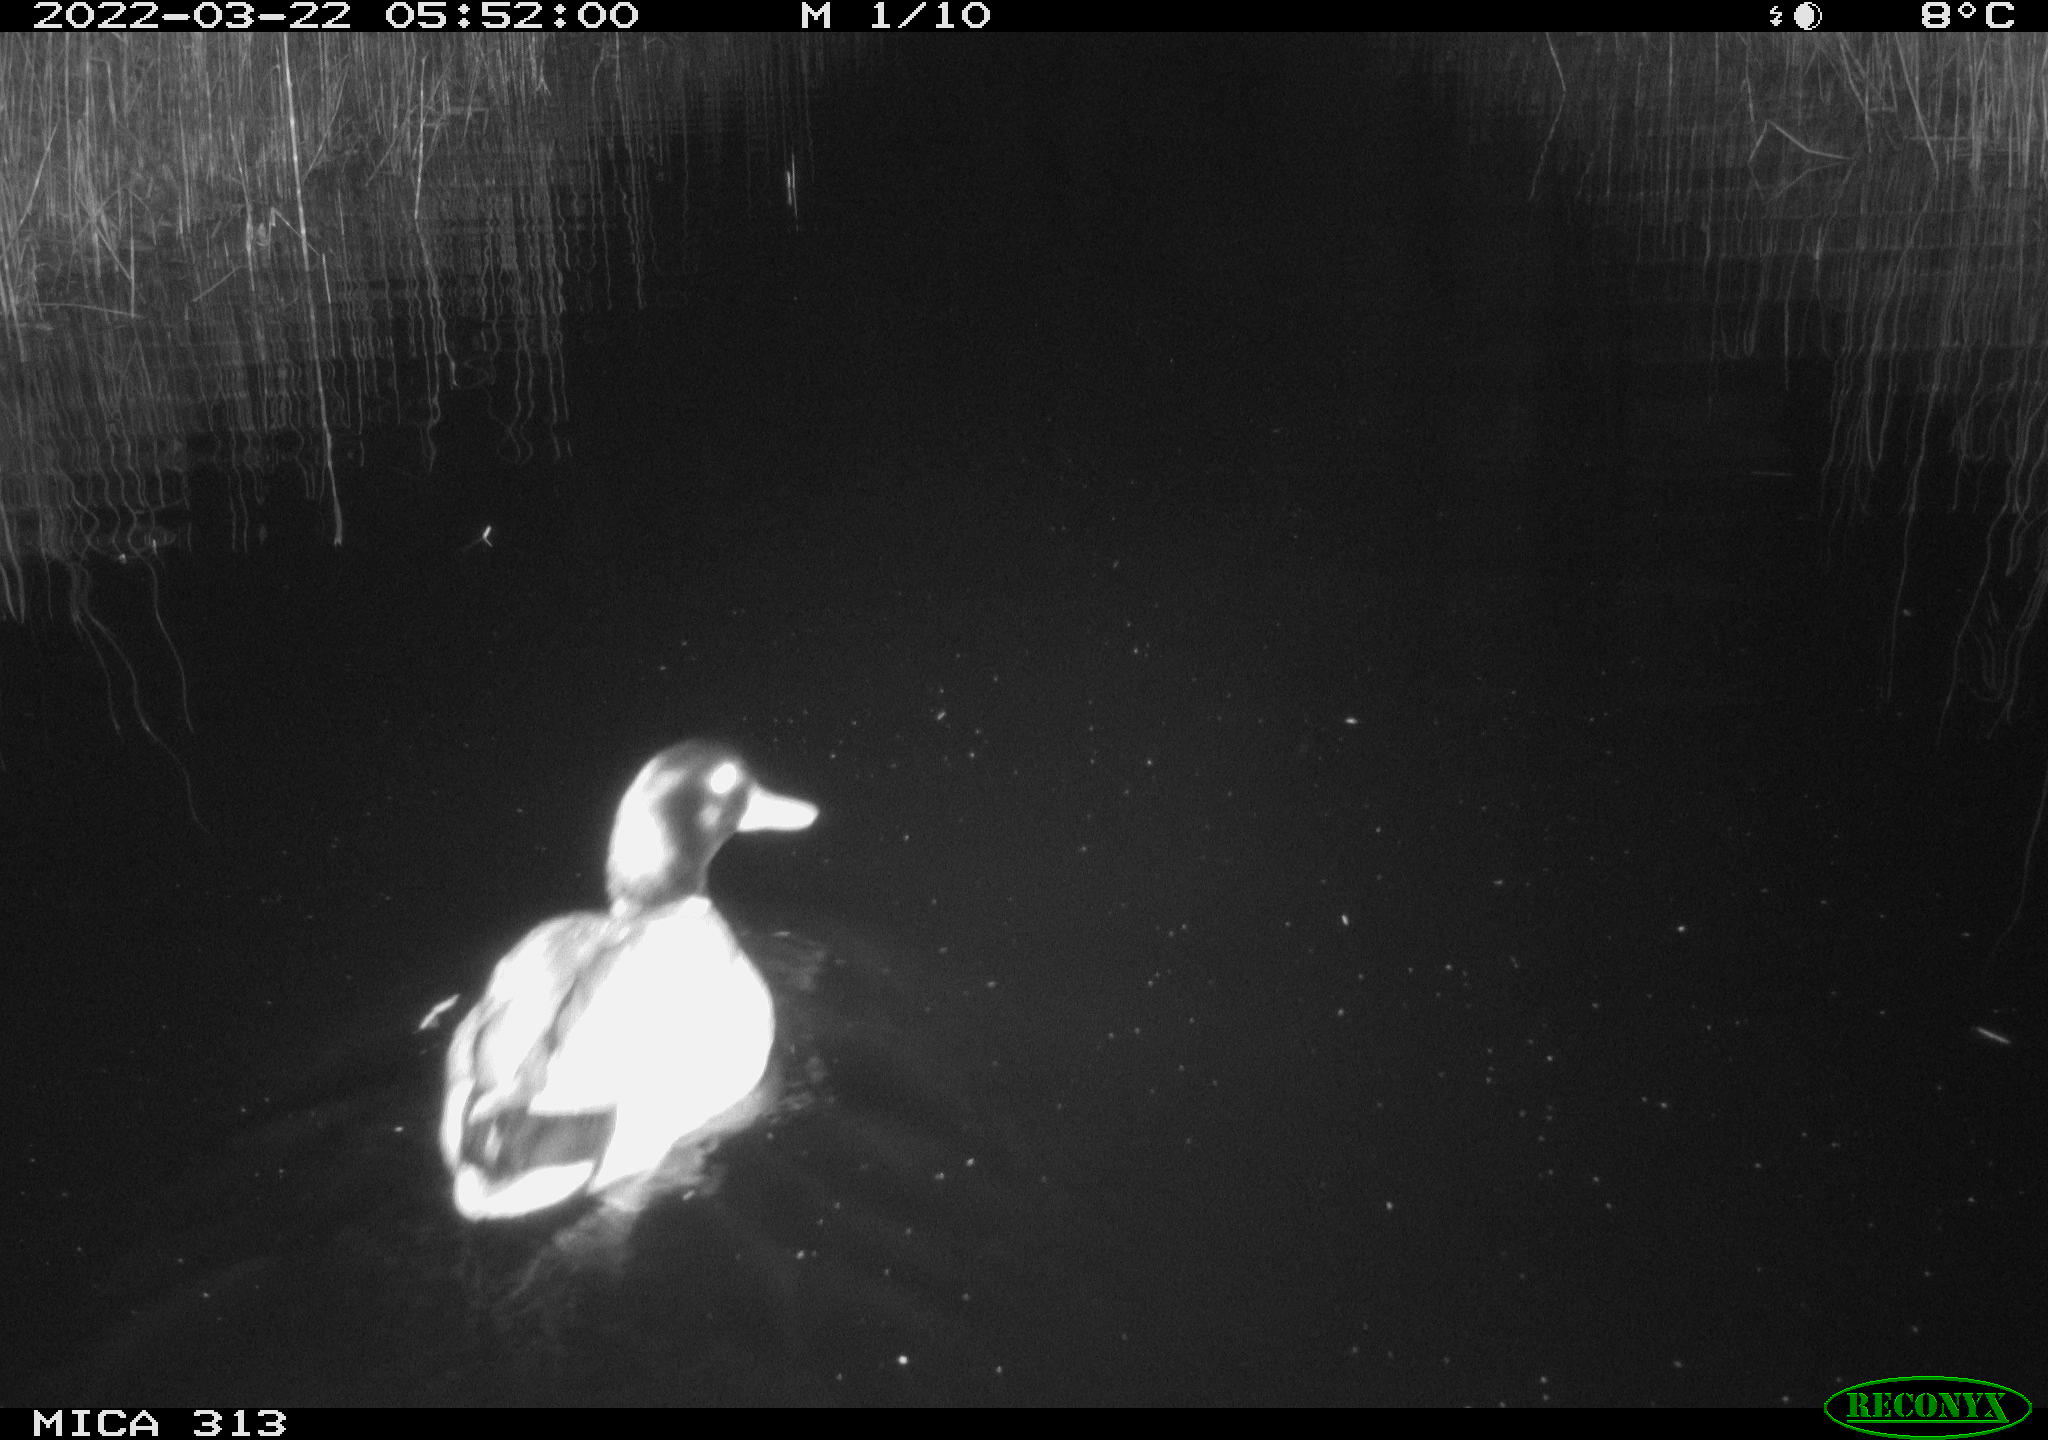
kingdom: Animalia
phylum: Chordata
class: Aves
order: Anseriformes
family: Anatidae
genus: Anas
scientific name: Anas platyrhynchos
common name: Mallard
